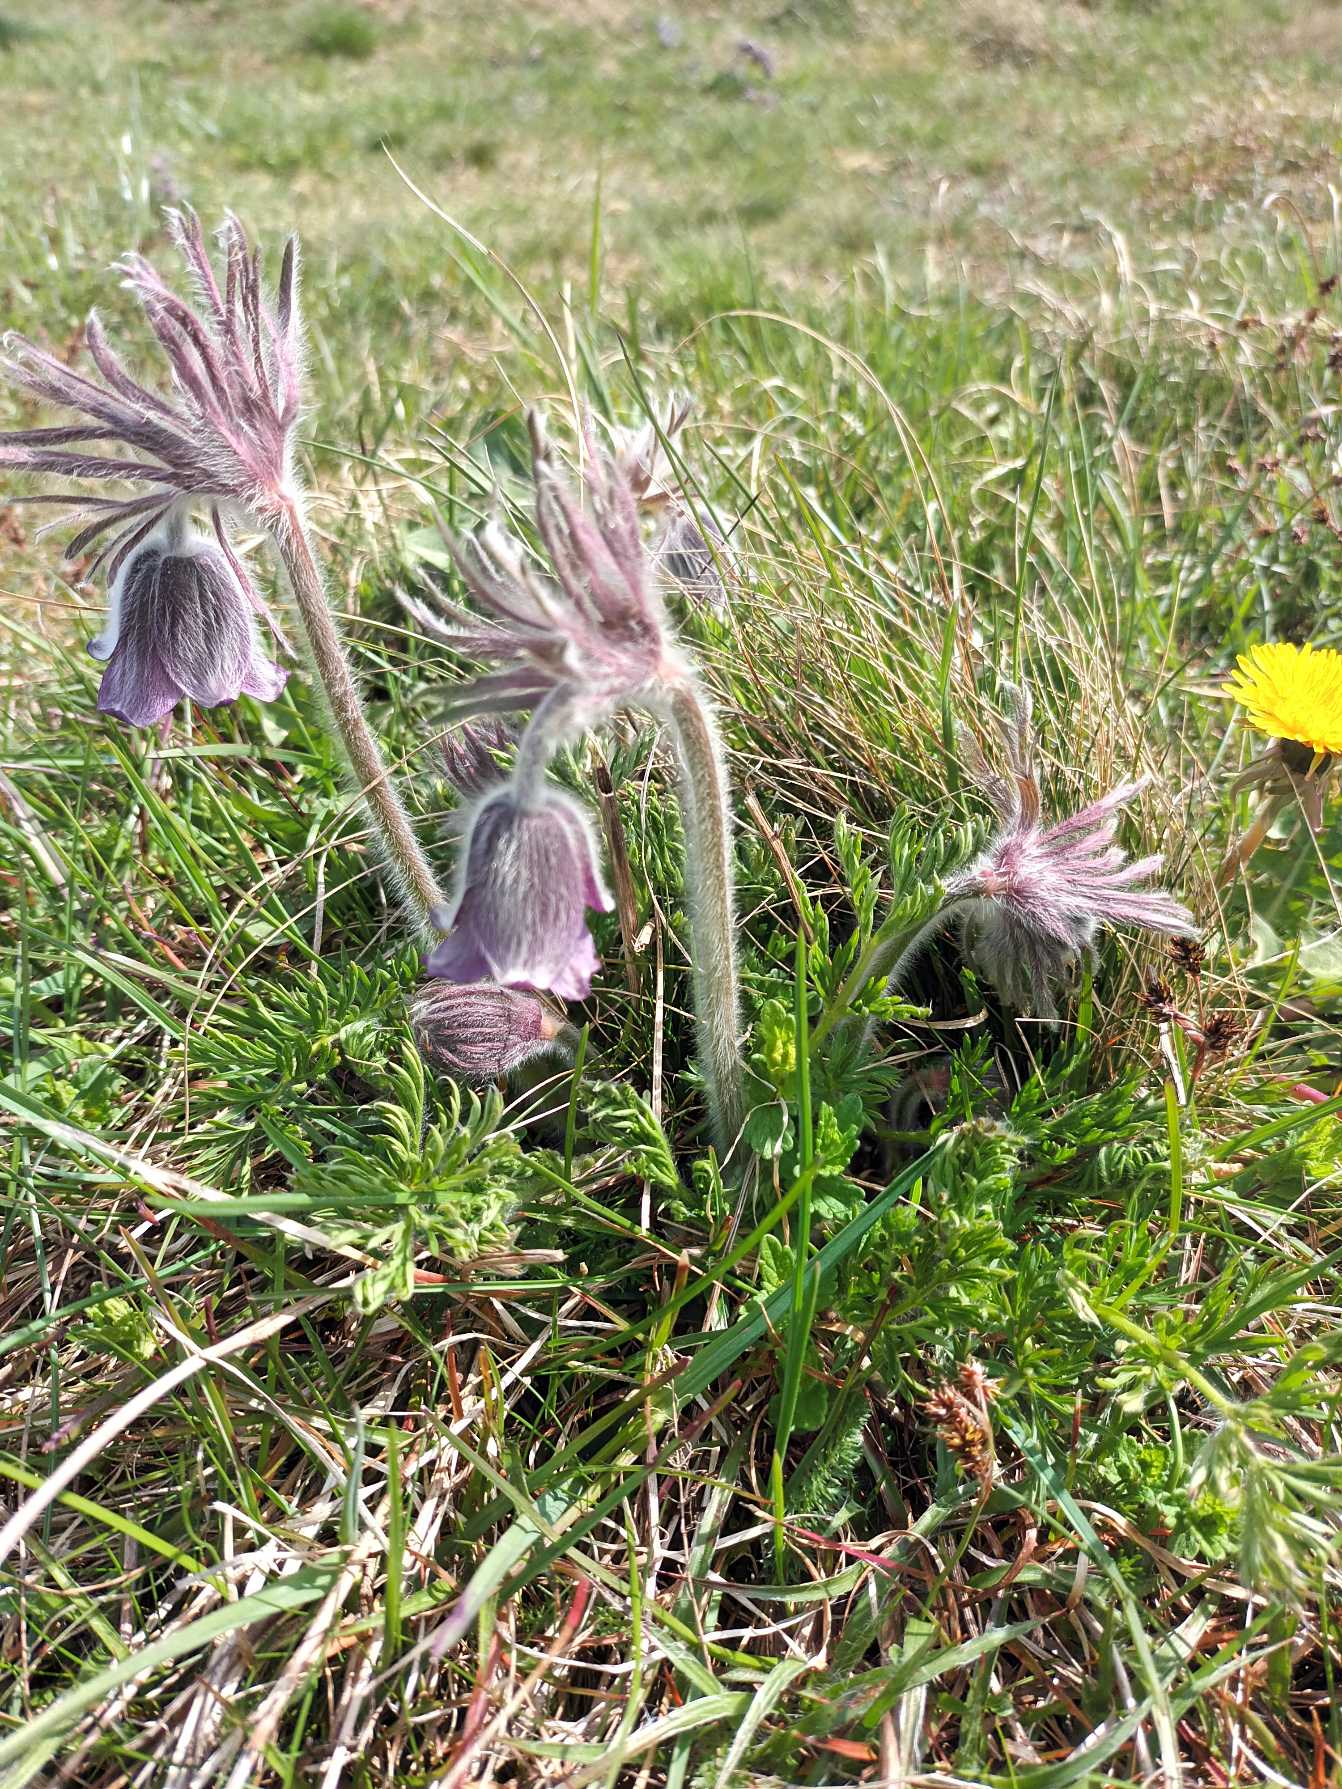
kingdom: Plantae
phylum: Tracheophyta
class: Magnoliopsida
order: Ranunculales
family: Ranunculaceae
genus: Pulsatilla
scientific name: Pulsatilla pratensis
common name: Nikkende kobjælde
